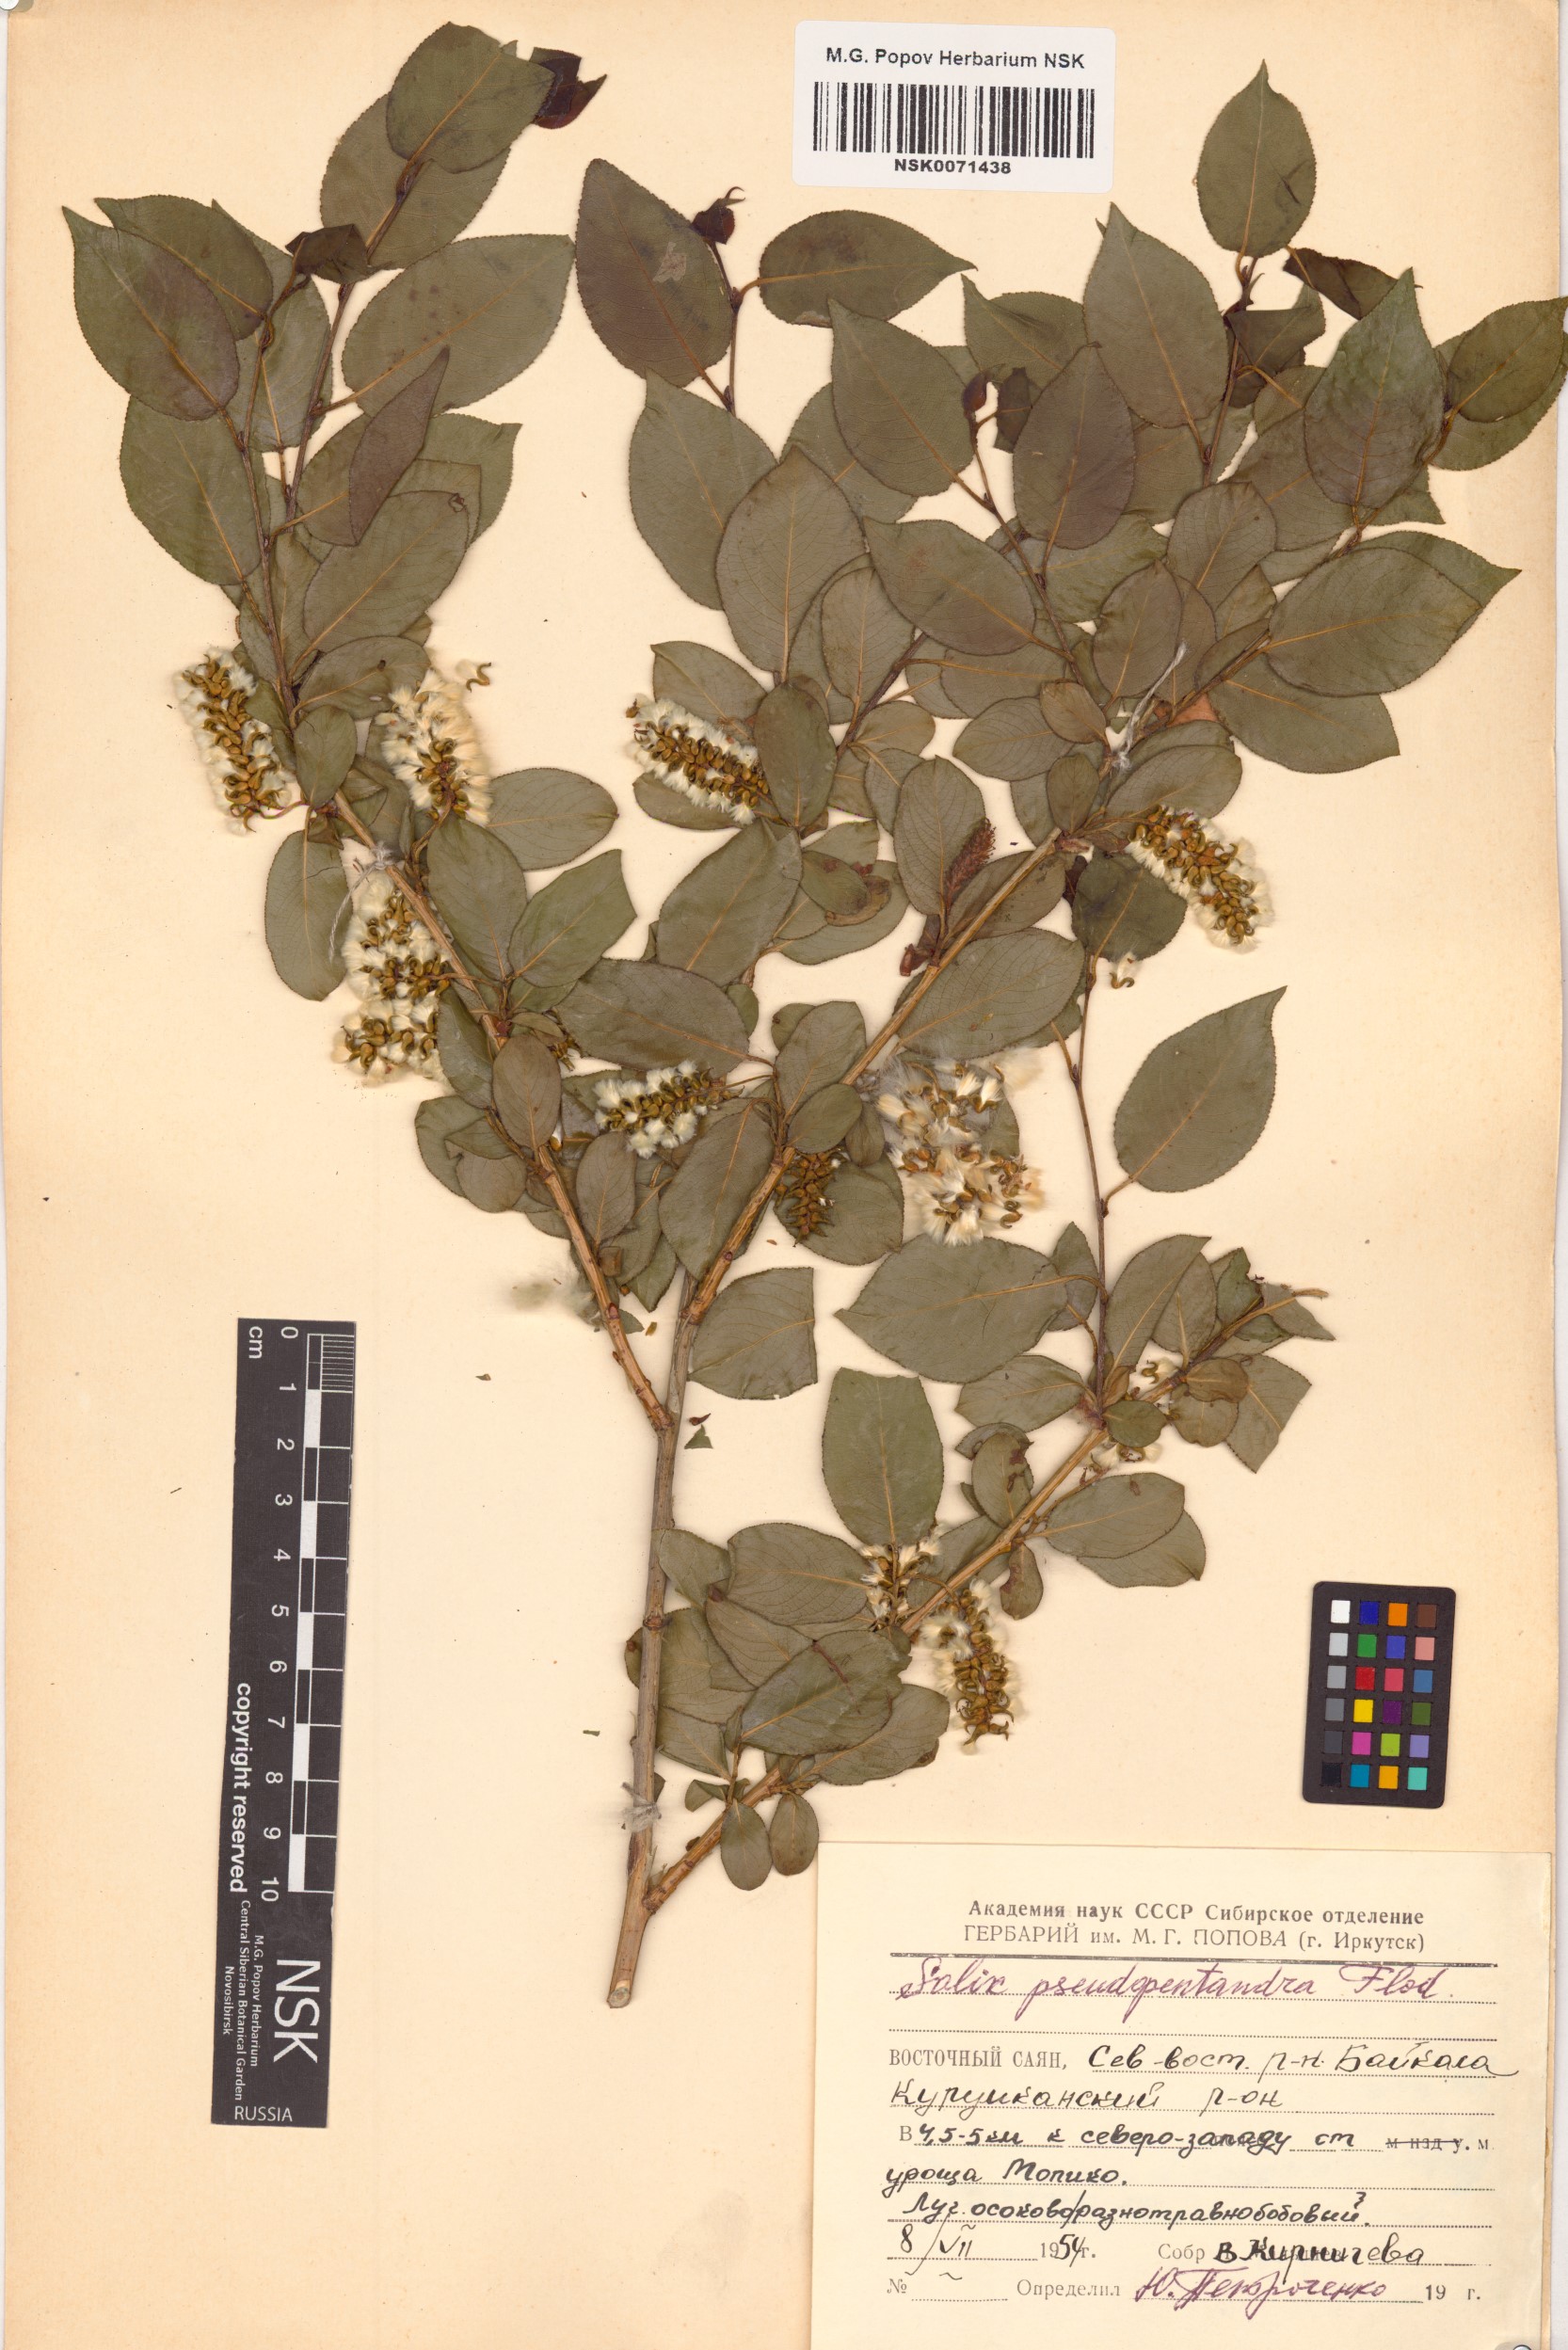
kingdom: Plantae
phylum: Tracheophyta
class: Magnoliopsida
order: Malpighiales
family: Salicaceae
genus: Salix
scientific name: Salix pseudopentandra
